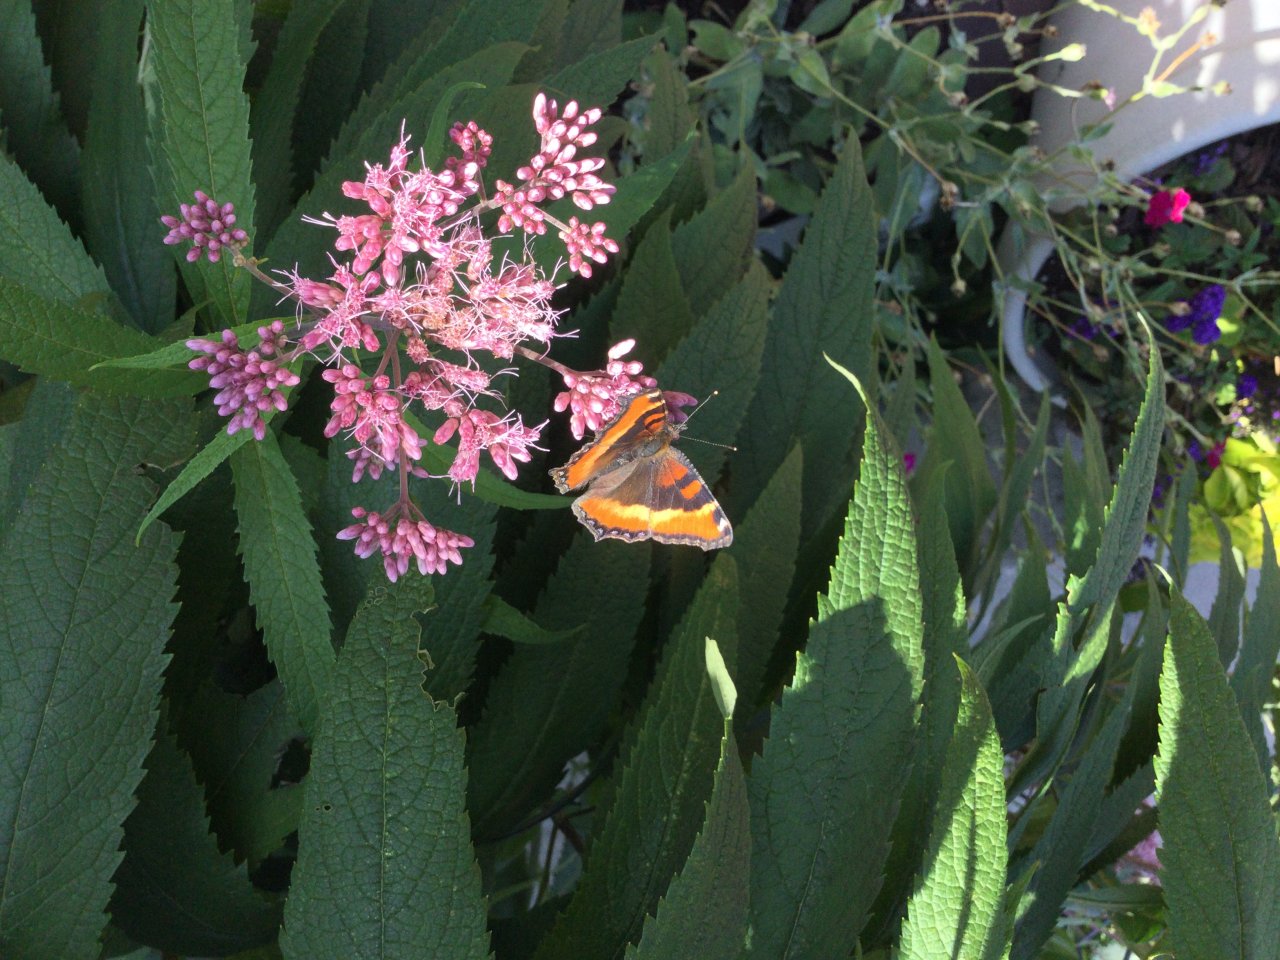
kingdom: Animalia
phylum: Arthropoda
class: Insecta
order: Lepidoptera
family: Nymphalidae
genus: Aglais
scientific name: Aglais milberti
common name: Milbert's Tortoiseshell
